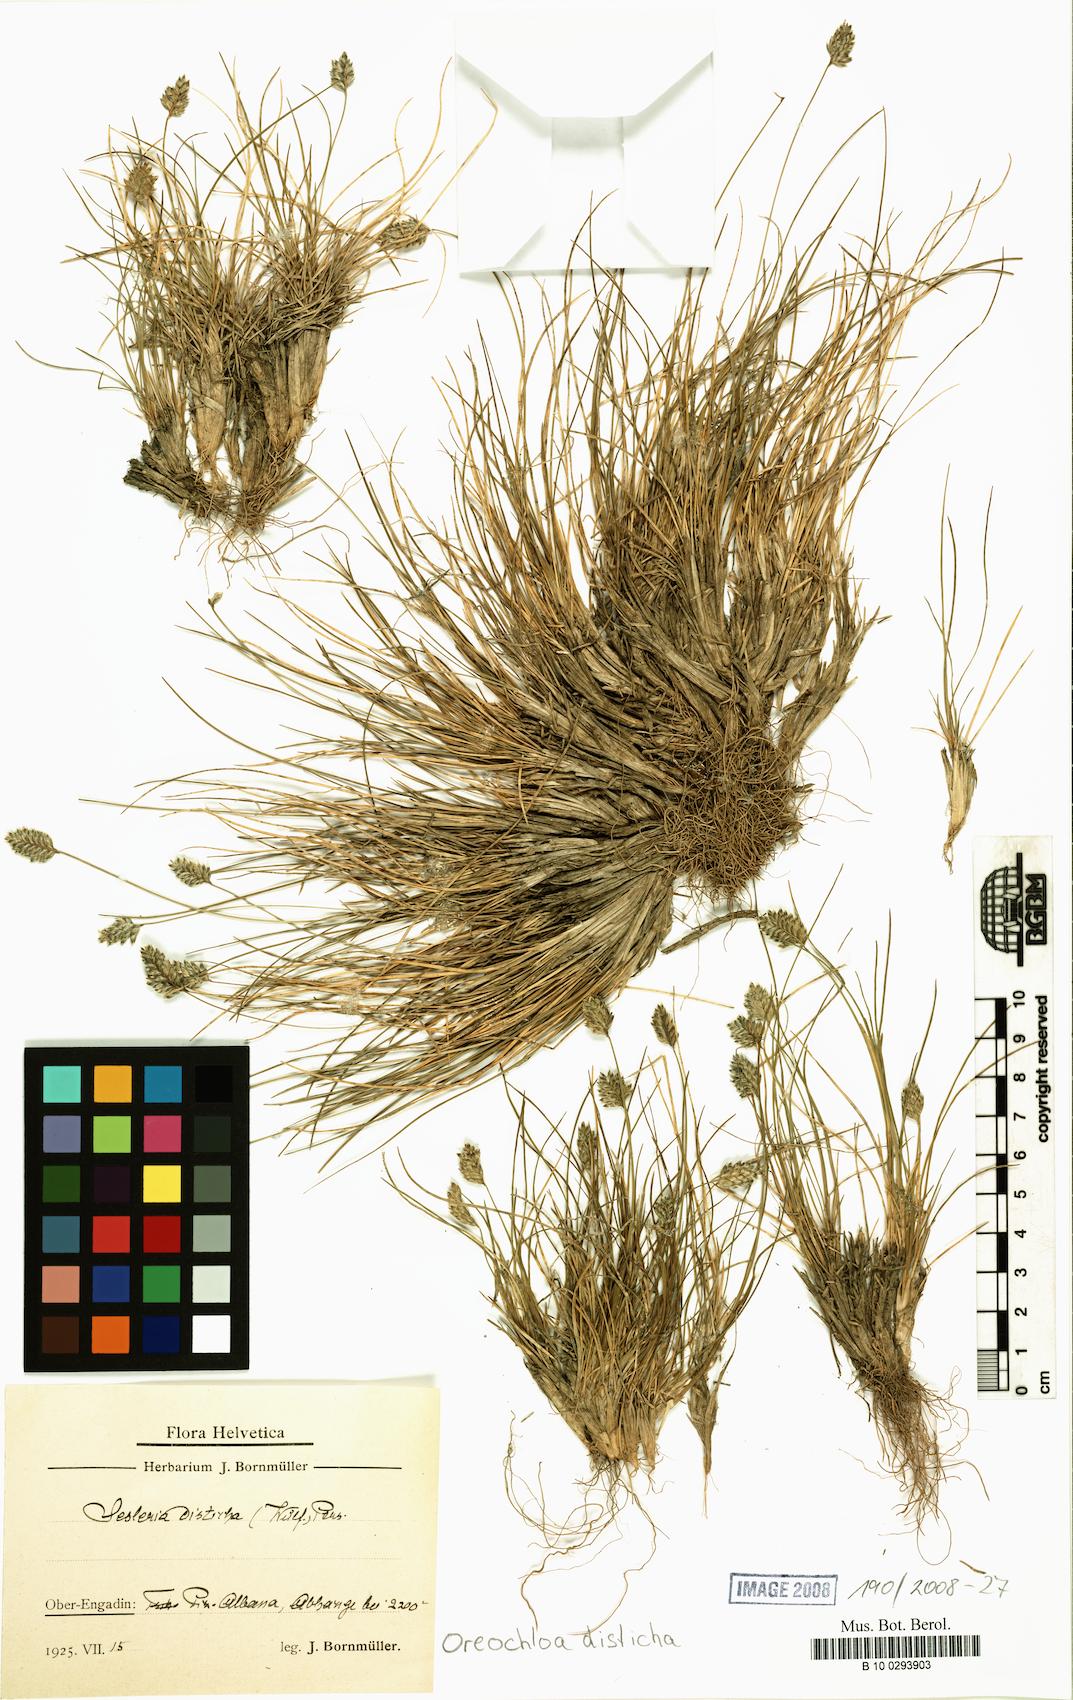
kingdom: Plantae
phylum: Tracheophyta
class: Liliopsida
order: Poales
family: Poaceae
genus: Oreochloa
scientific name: Oreochloa disticha
